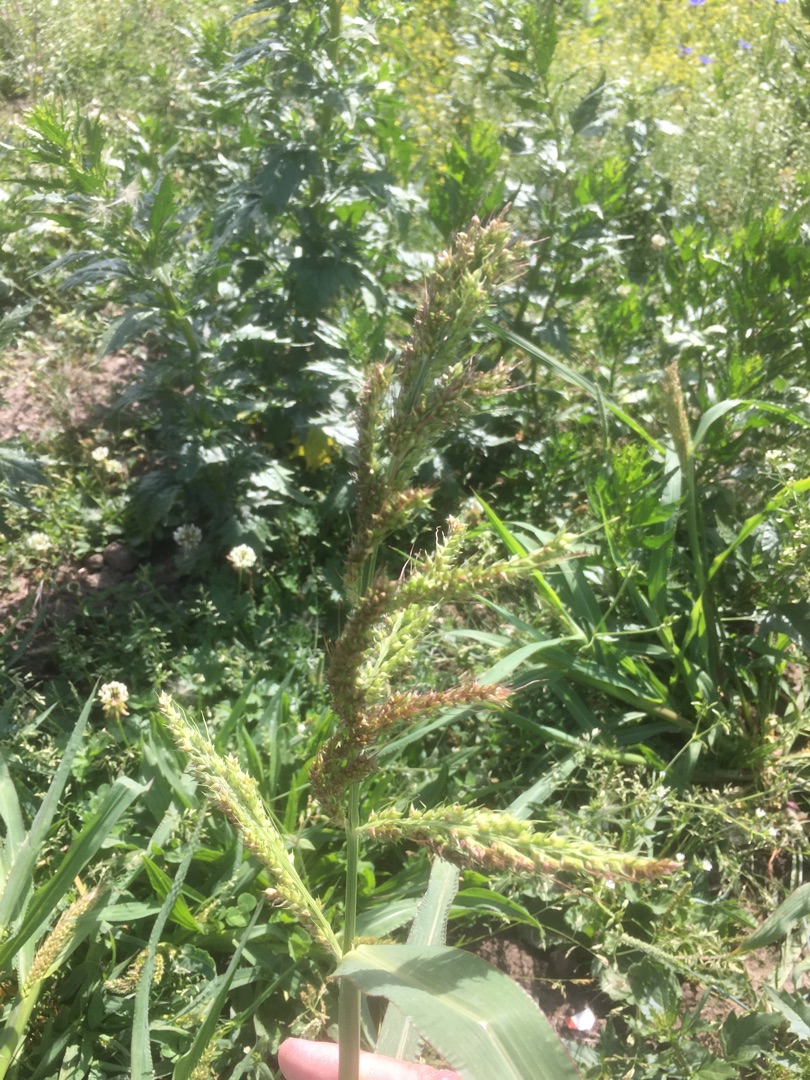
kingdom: Plantae
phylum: Tracheophyta
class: Liliopsida
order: Poales
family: Poaceae
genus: Echinochloa
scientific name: Echinochloa crus-galli
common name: Almindelig hanespore
